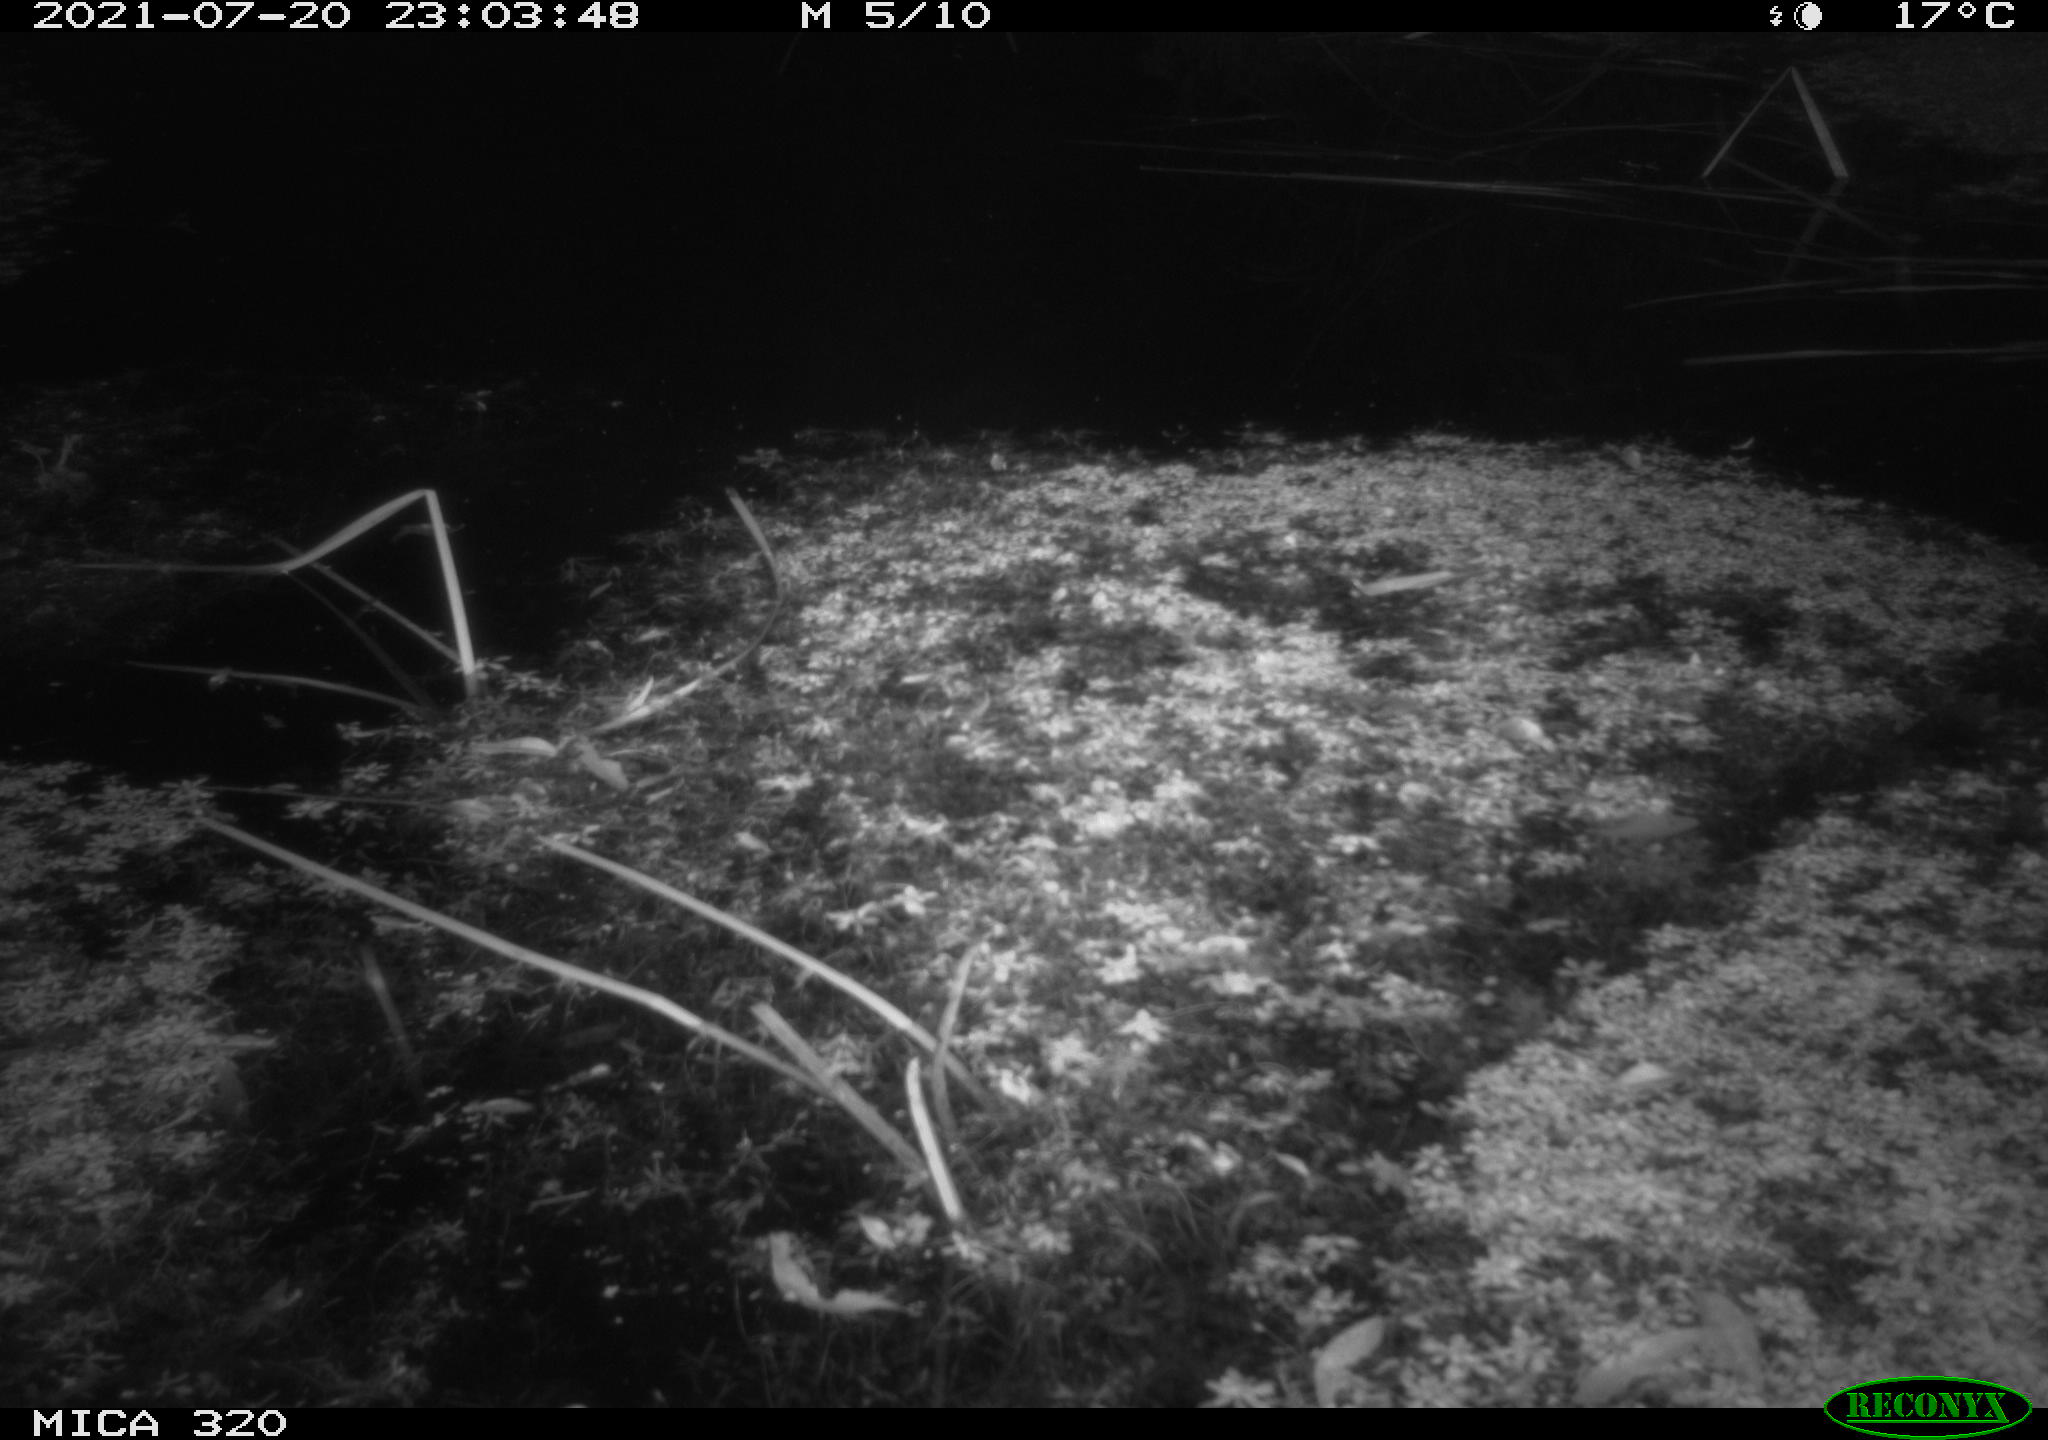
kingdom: Animalia
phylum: Chordata
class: Mammalia
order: Rodentia
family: Muridae
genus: Rattus
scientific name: Rattus norvegicus
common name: Brown rat
